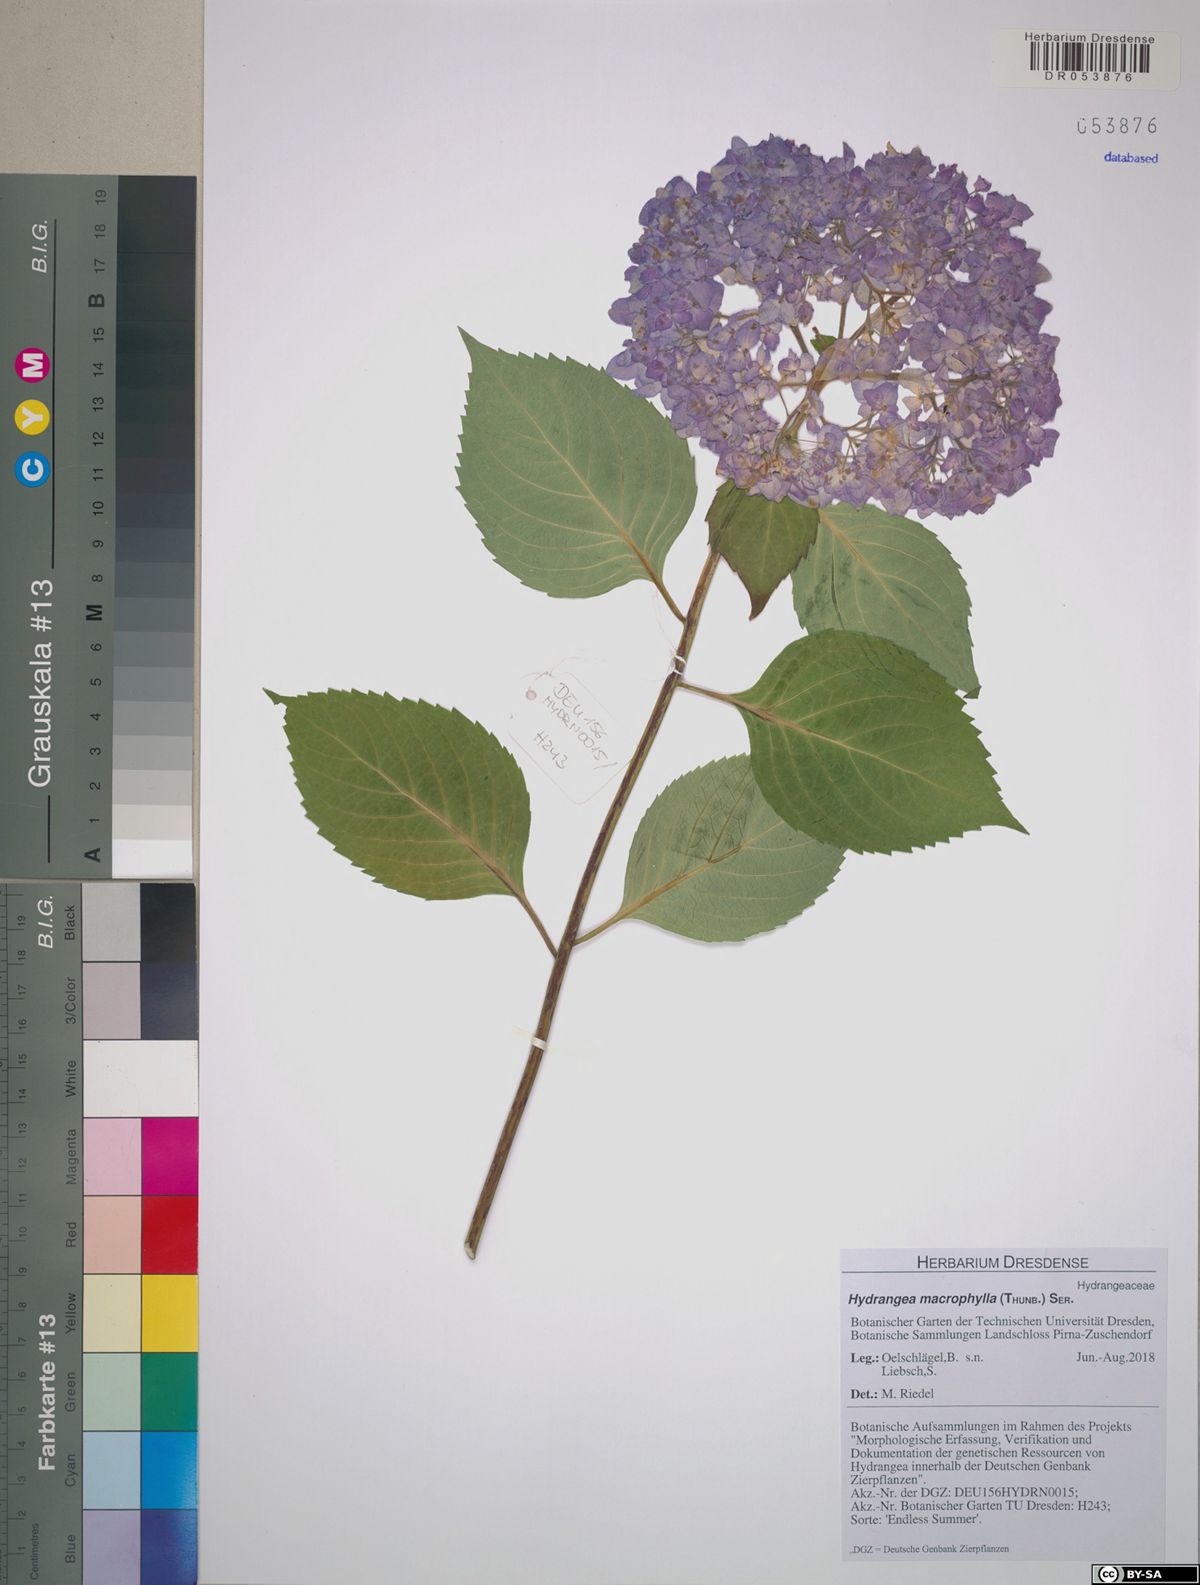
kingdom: Plantae
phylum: Tracheophyta
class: Magnoliopsida
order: Cornales
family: Hydrangeaceae
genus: Hydrangea
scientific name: Hydrangea macrophylla
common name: Hydrangea
